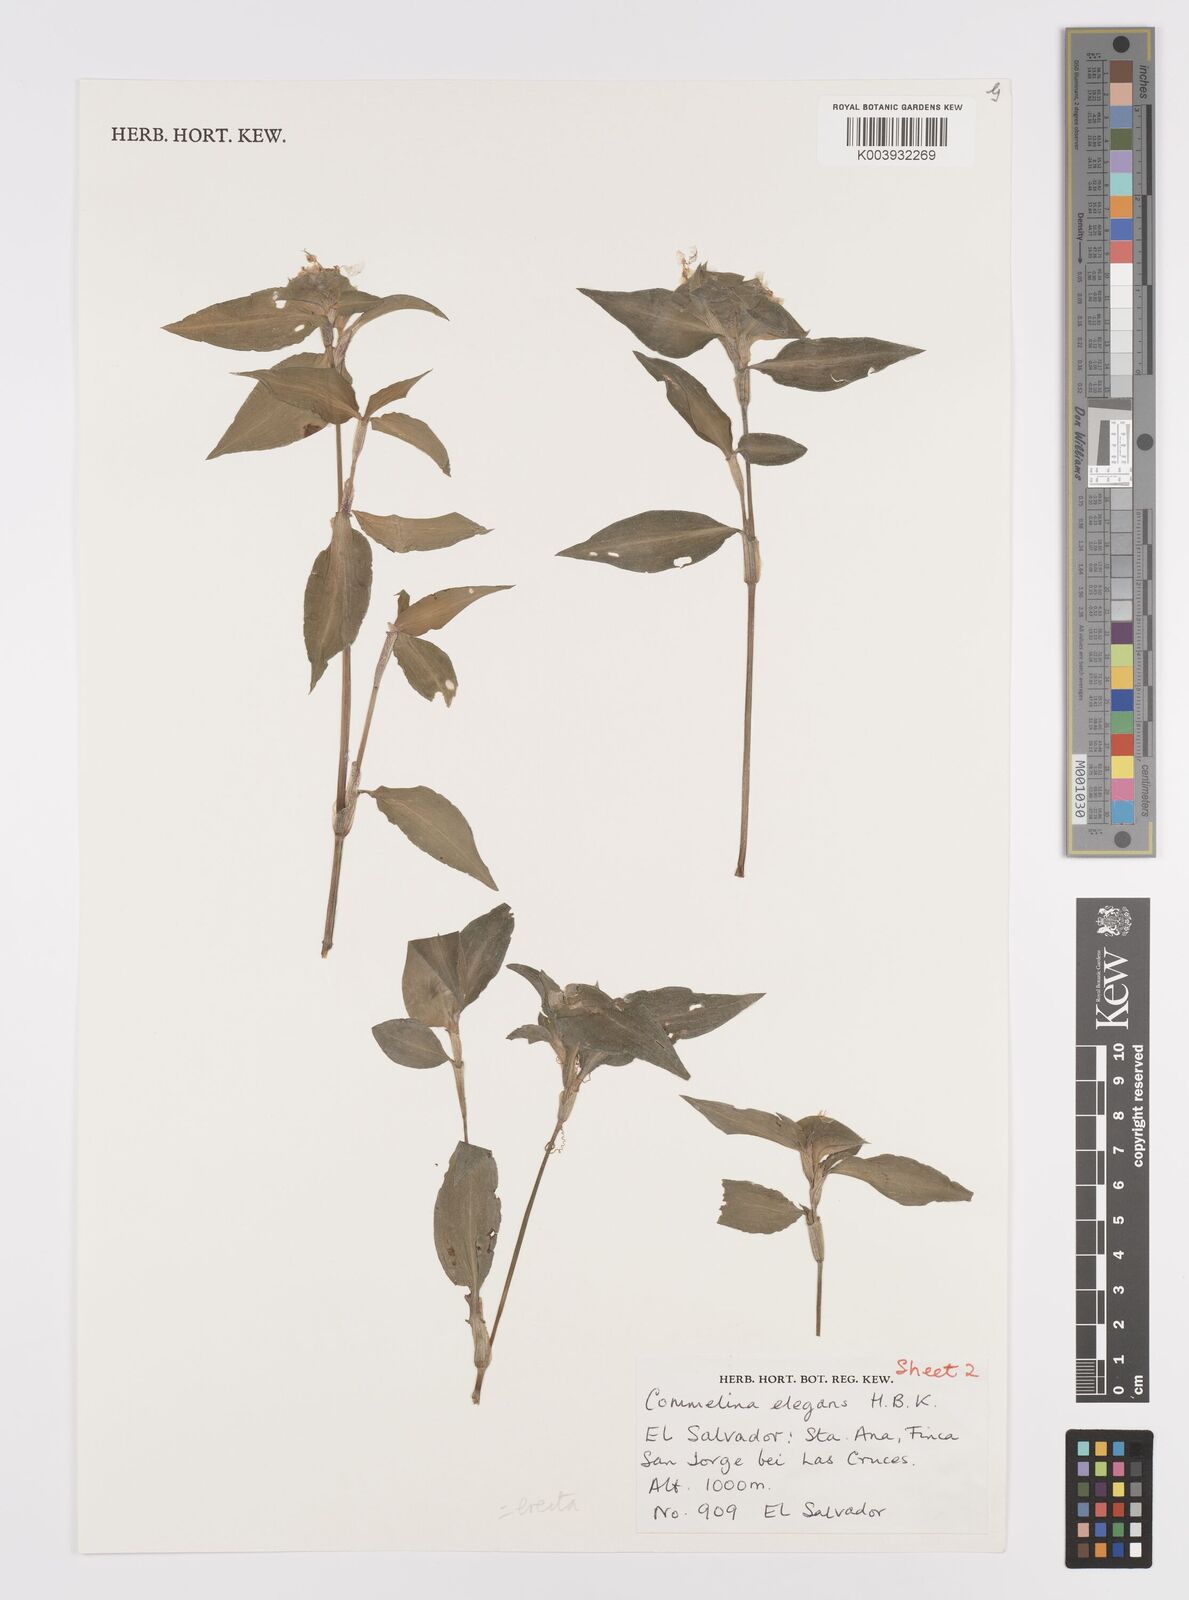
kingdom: Plantae
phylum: Tracheophyta
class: Liliopsida
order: Commelinales
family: Commelinaceae
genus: Commelina
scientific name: Commelina erecta
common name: Blousel blommetjie
